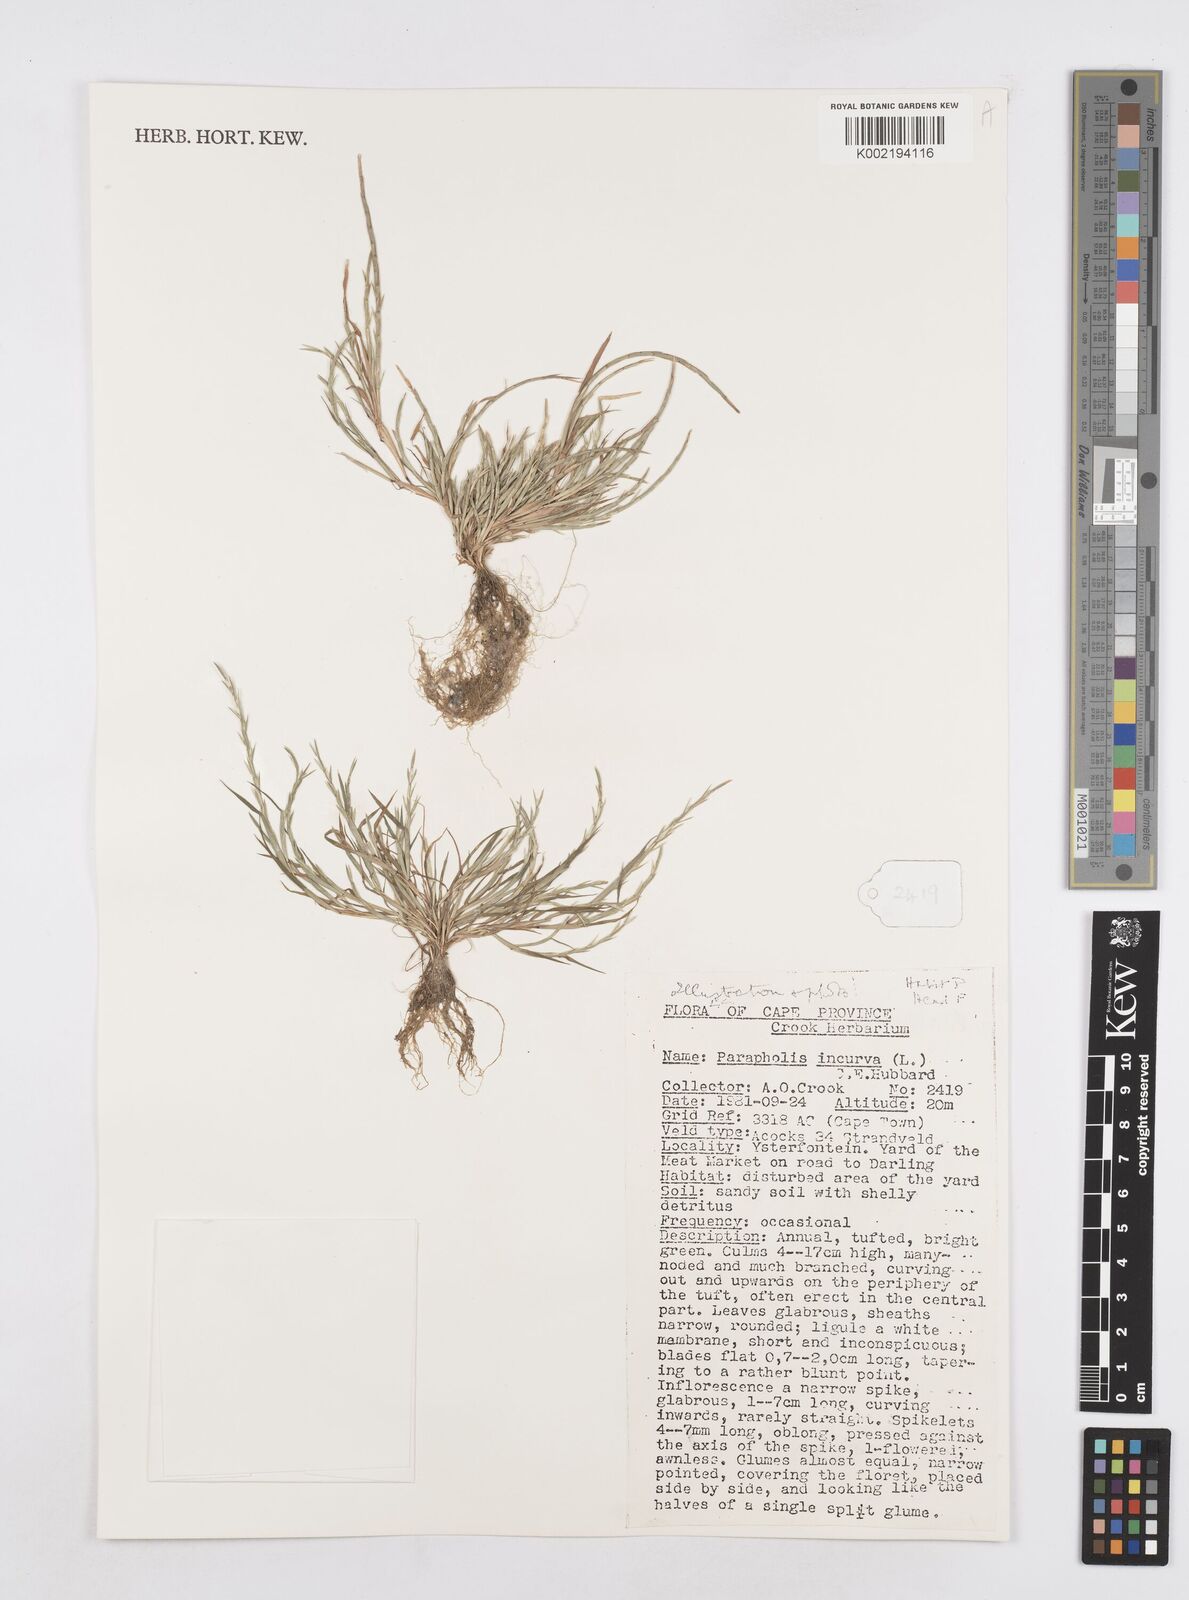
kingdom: Plantae
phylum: Tracheophyta
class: Liliopsida
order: Poales
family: Poaceae
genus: Parapholis
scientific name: Parapholis incurva
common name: Curved sicklegrass
